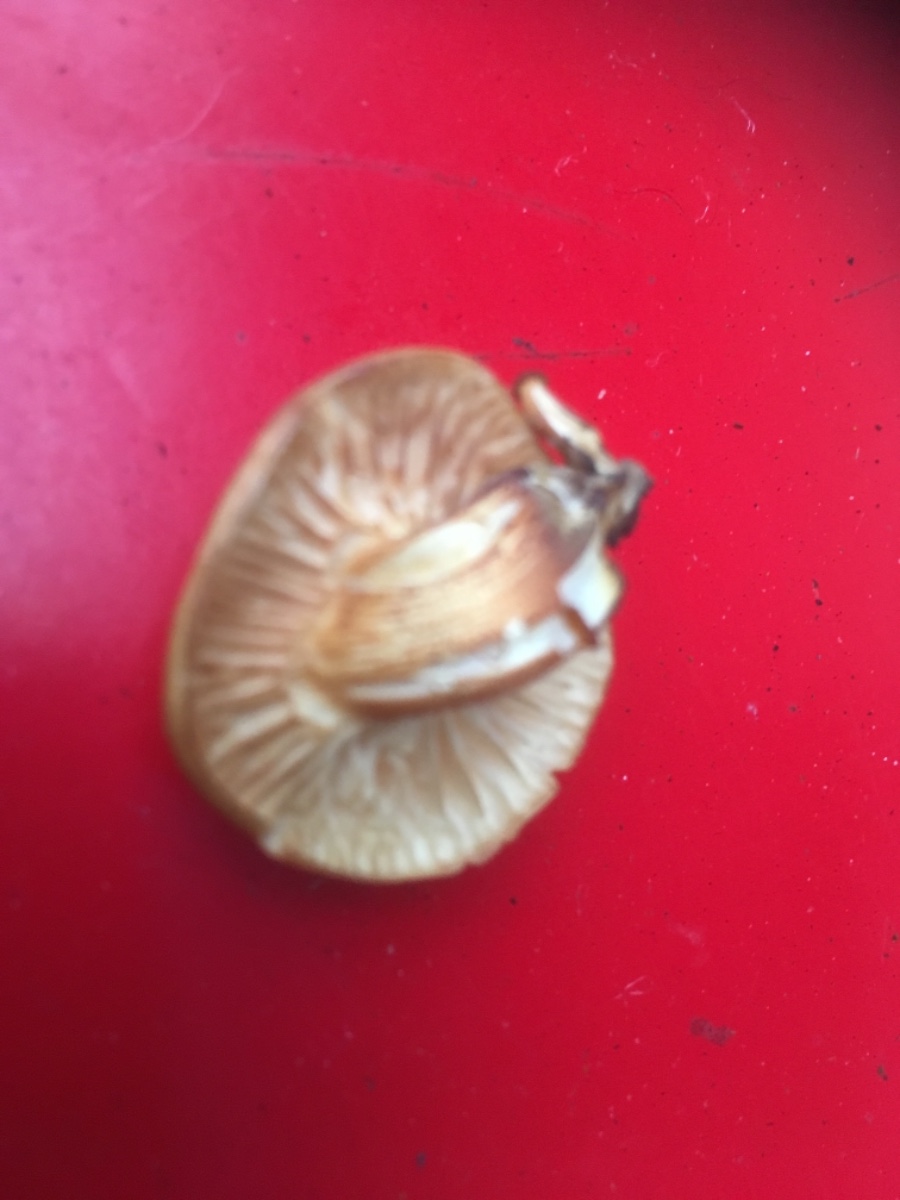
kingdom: Fungi
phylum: Basidiomycota
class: Agaricomycetes
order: Agaricales
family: Physalacriaceae
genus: Flammulina
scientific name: Flammulina elastica
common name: pile-fløjlsfod
